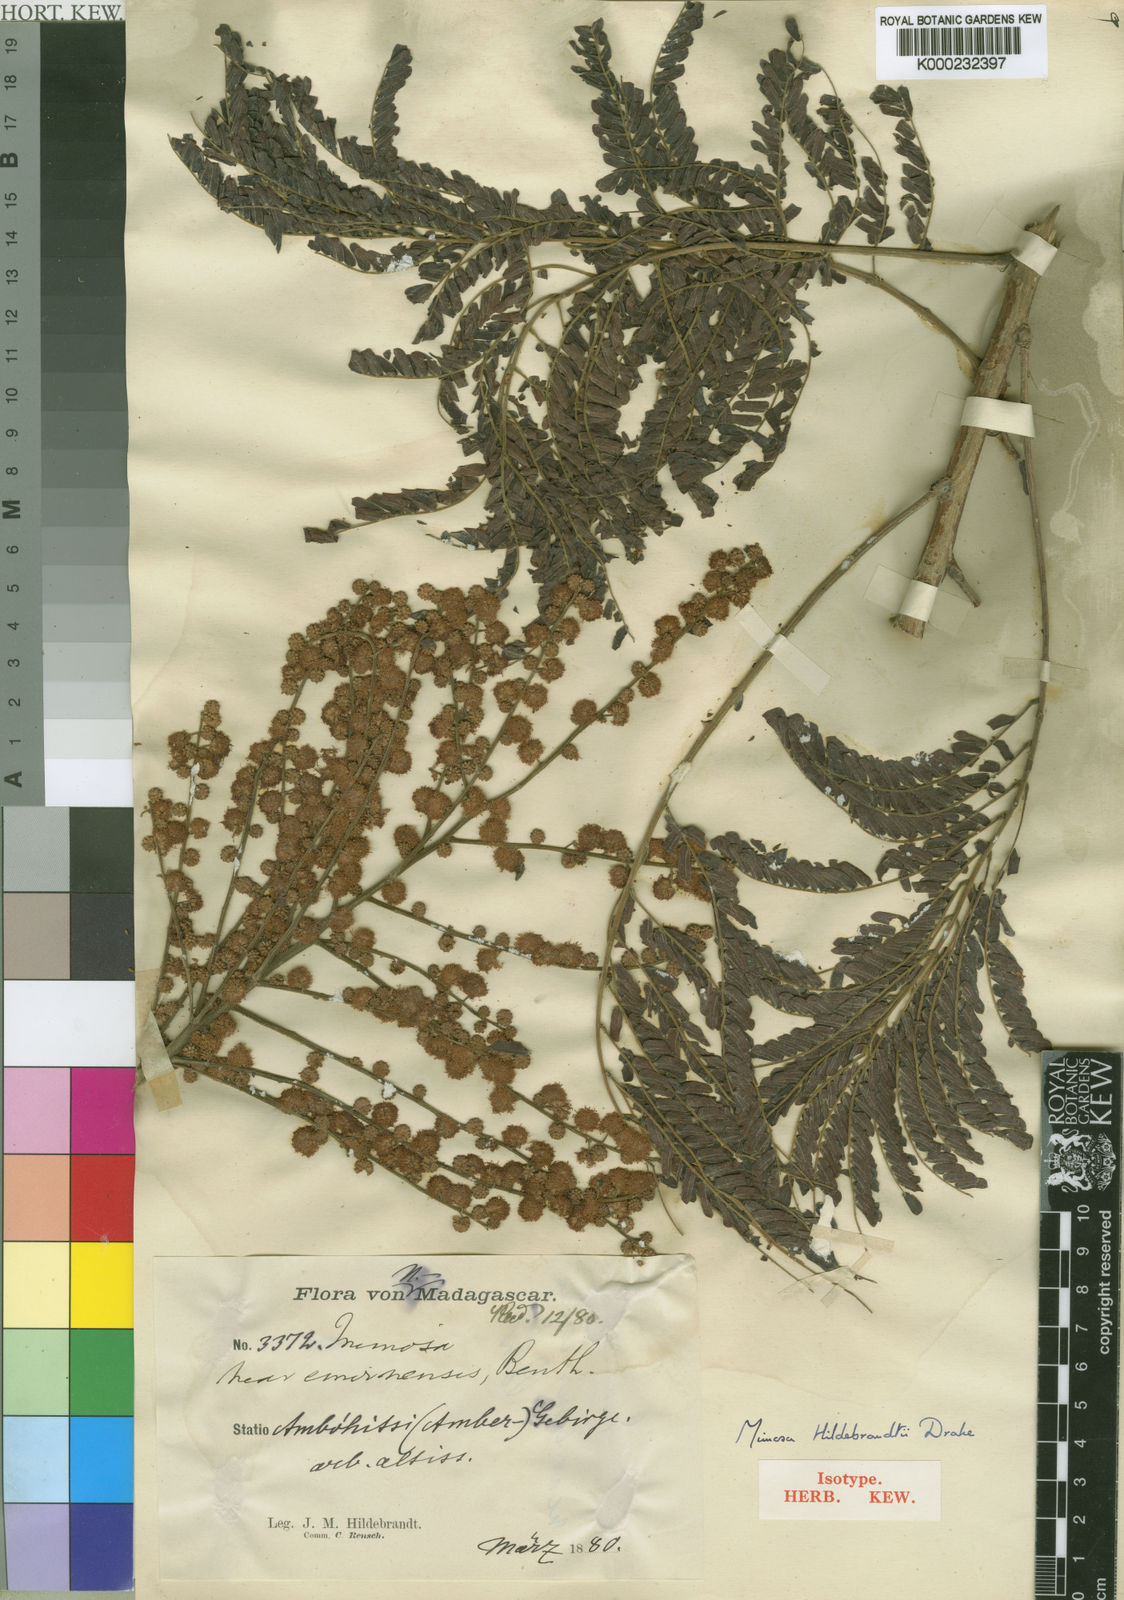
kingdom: Plantae
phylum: Tracheophyta
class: Magnoliopsida
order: Fabales
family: Fabaceae
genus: Mimosa
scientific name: Mimosa hildebrandtii
